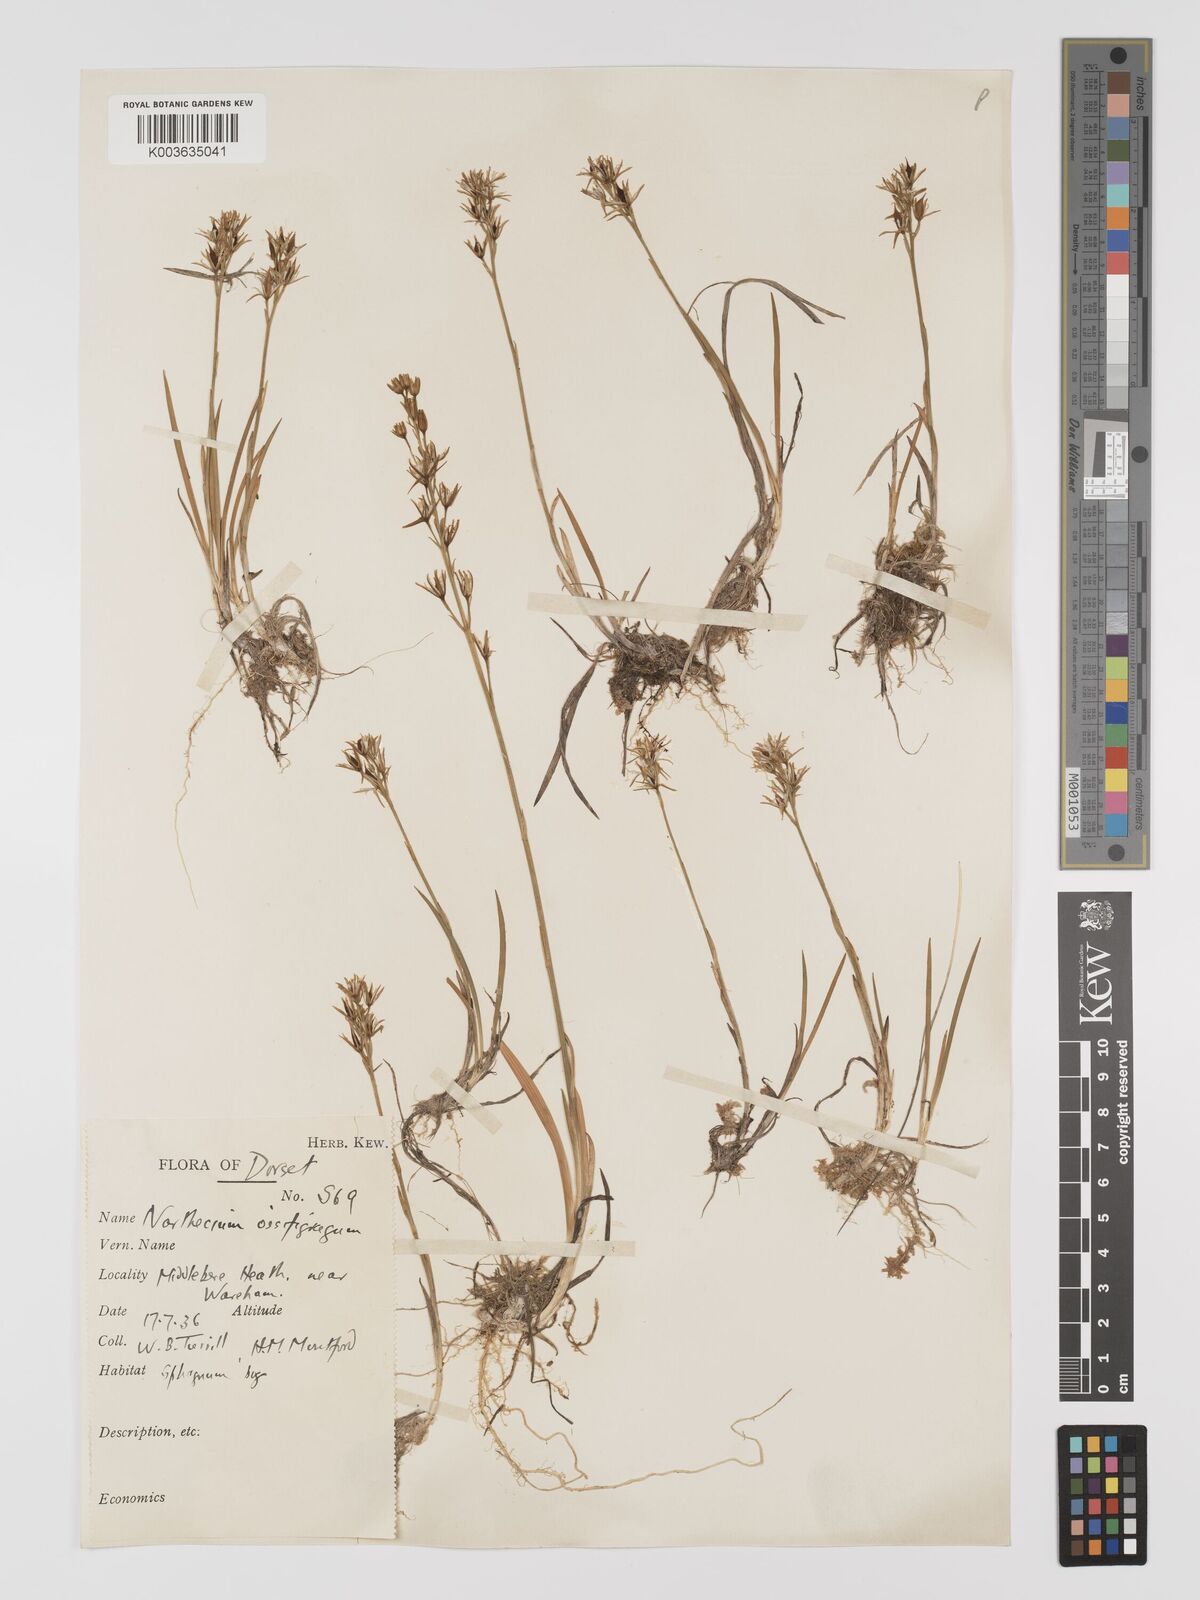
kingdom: Plantae
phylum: Tracheophyta
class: Liliopsida
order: Dioscoreales
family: Nartheciaceae
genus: Narthecium
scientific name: Narthecium
